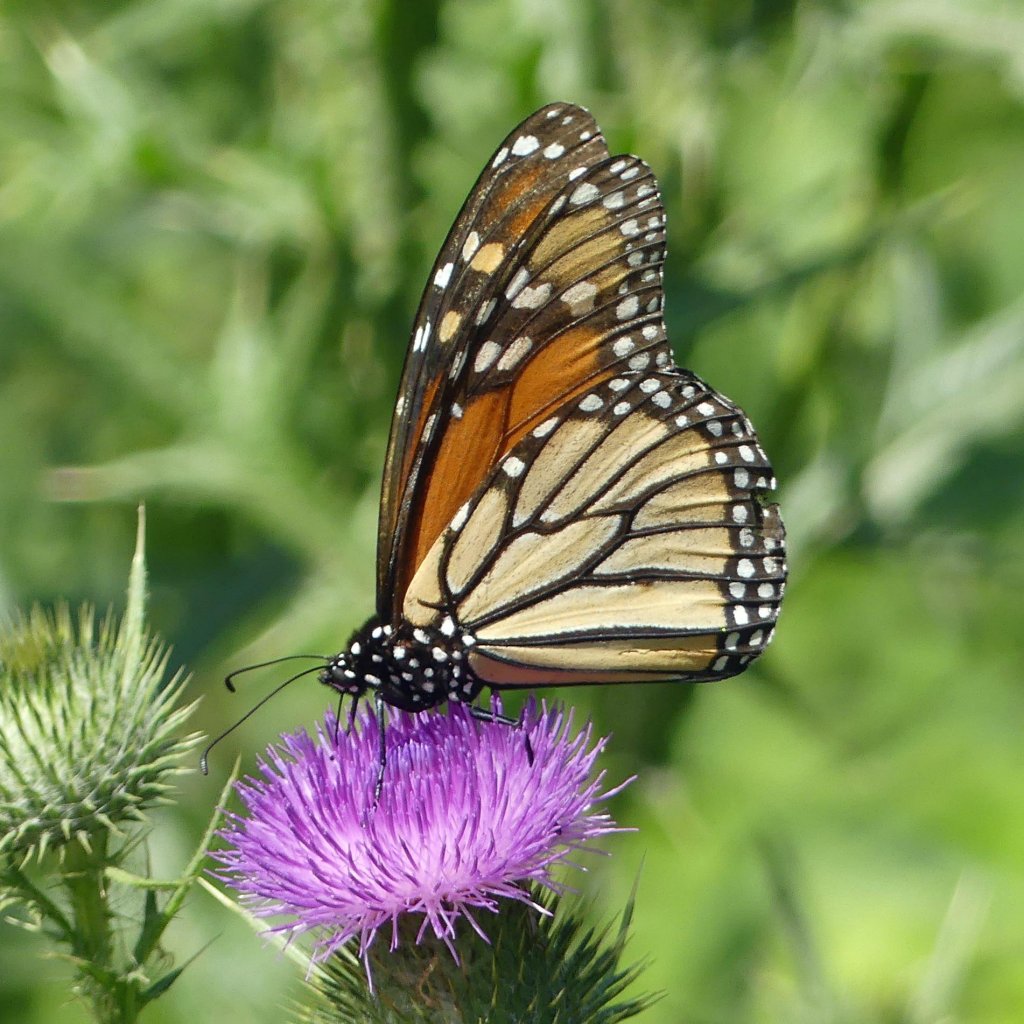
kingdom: Animalia
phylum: Arthropoda
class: Insecta
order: Lepidoptera
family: Nymphalidae
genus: Danaus
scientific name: Danaus plexippus
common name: Monarch
